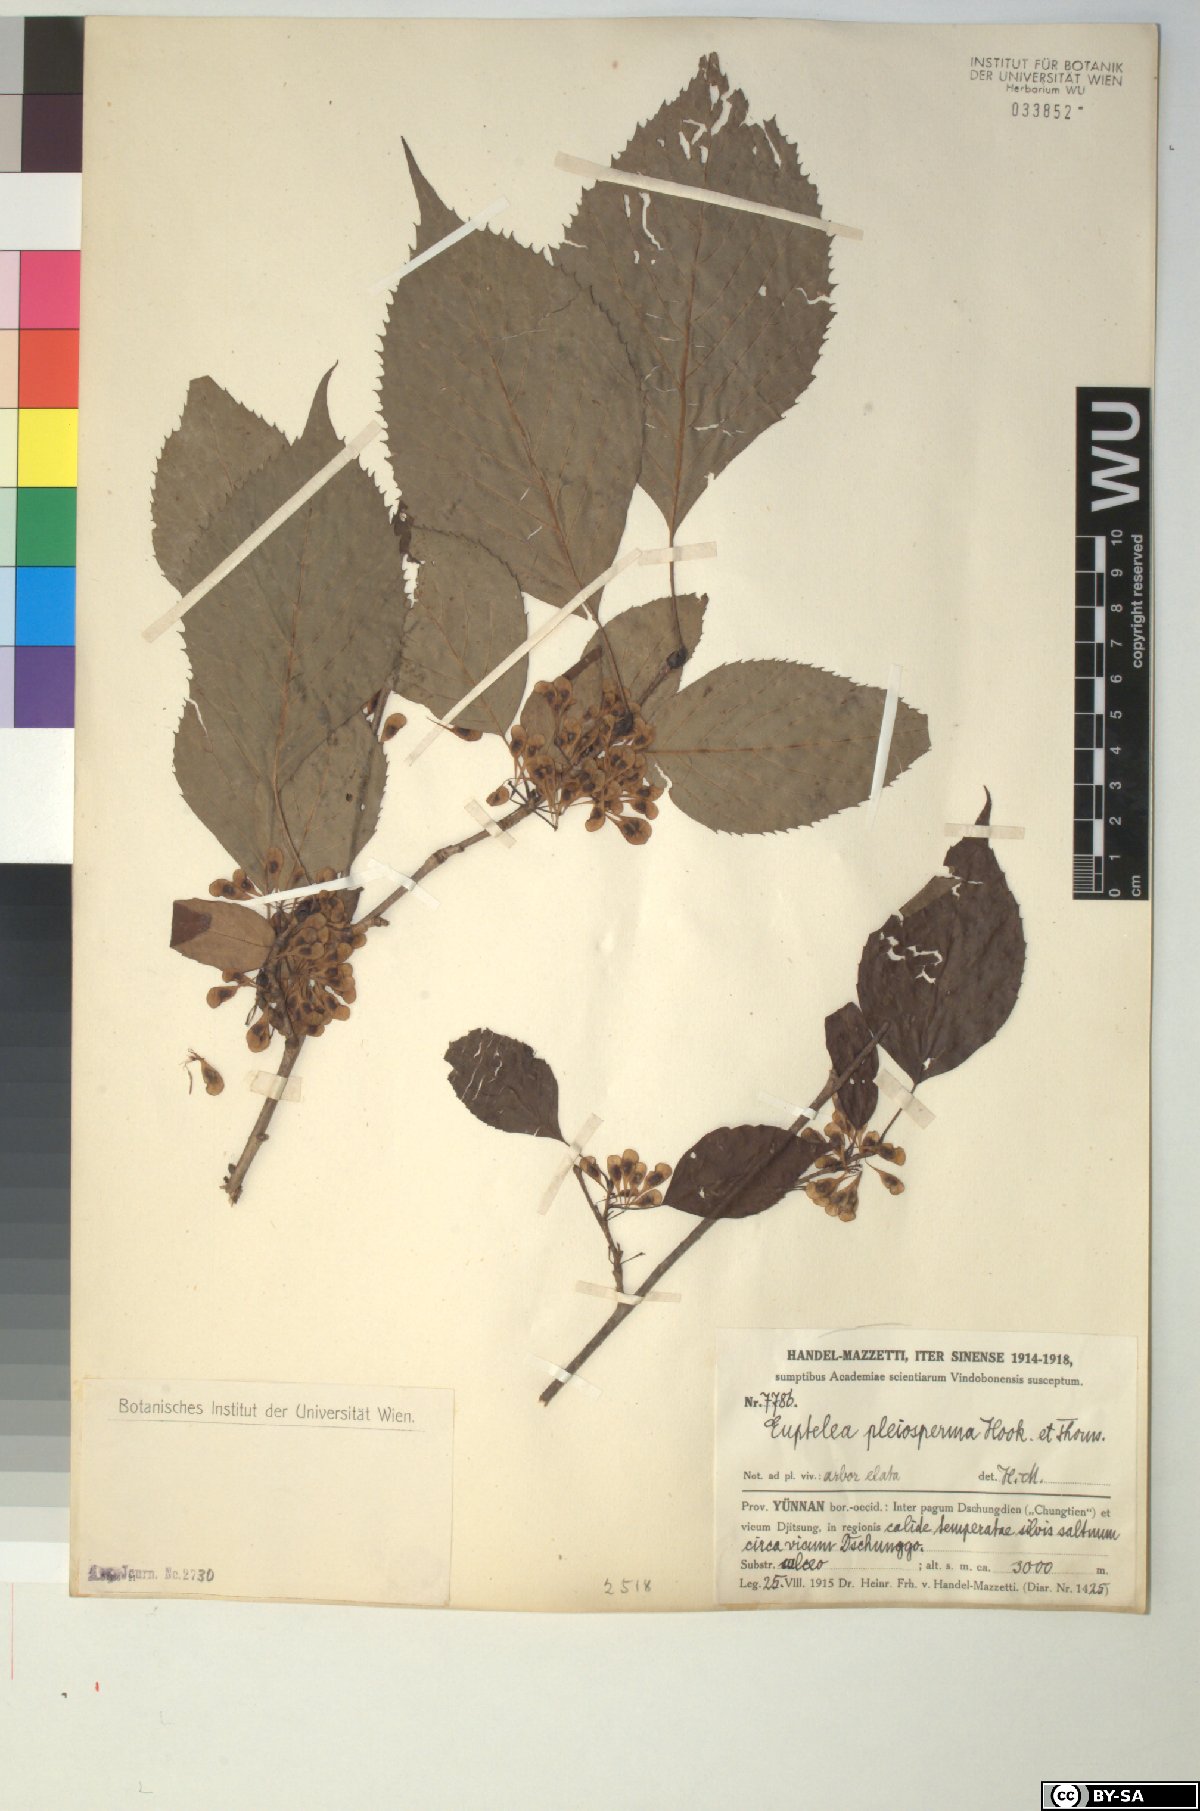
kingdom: Plantae
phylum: Tracheophyta
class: Magnoliopsida
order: Ranunculales
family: Eupteleaceae
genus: Euptelea
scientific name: Euptelea pleiosperma
